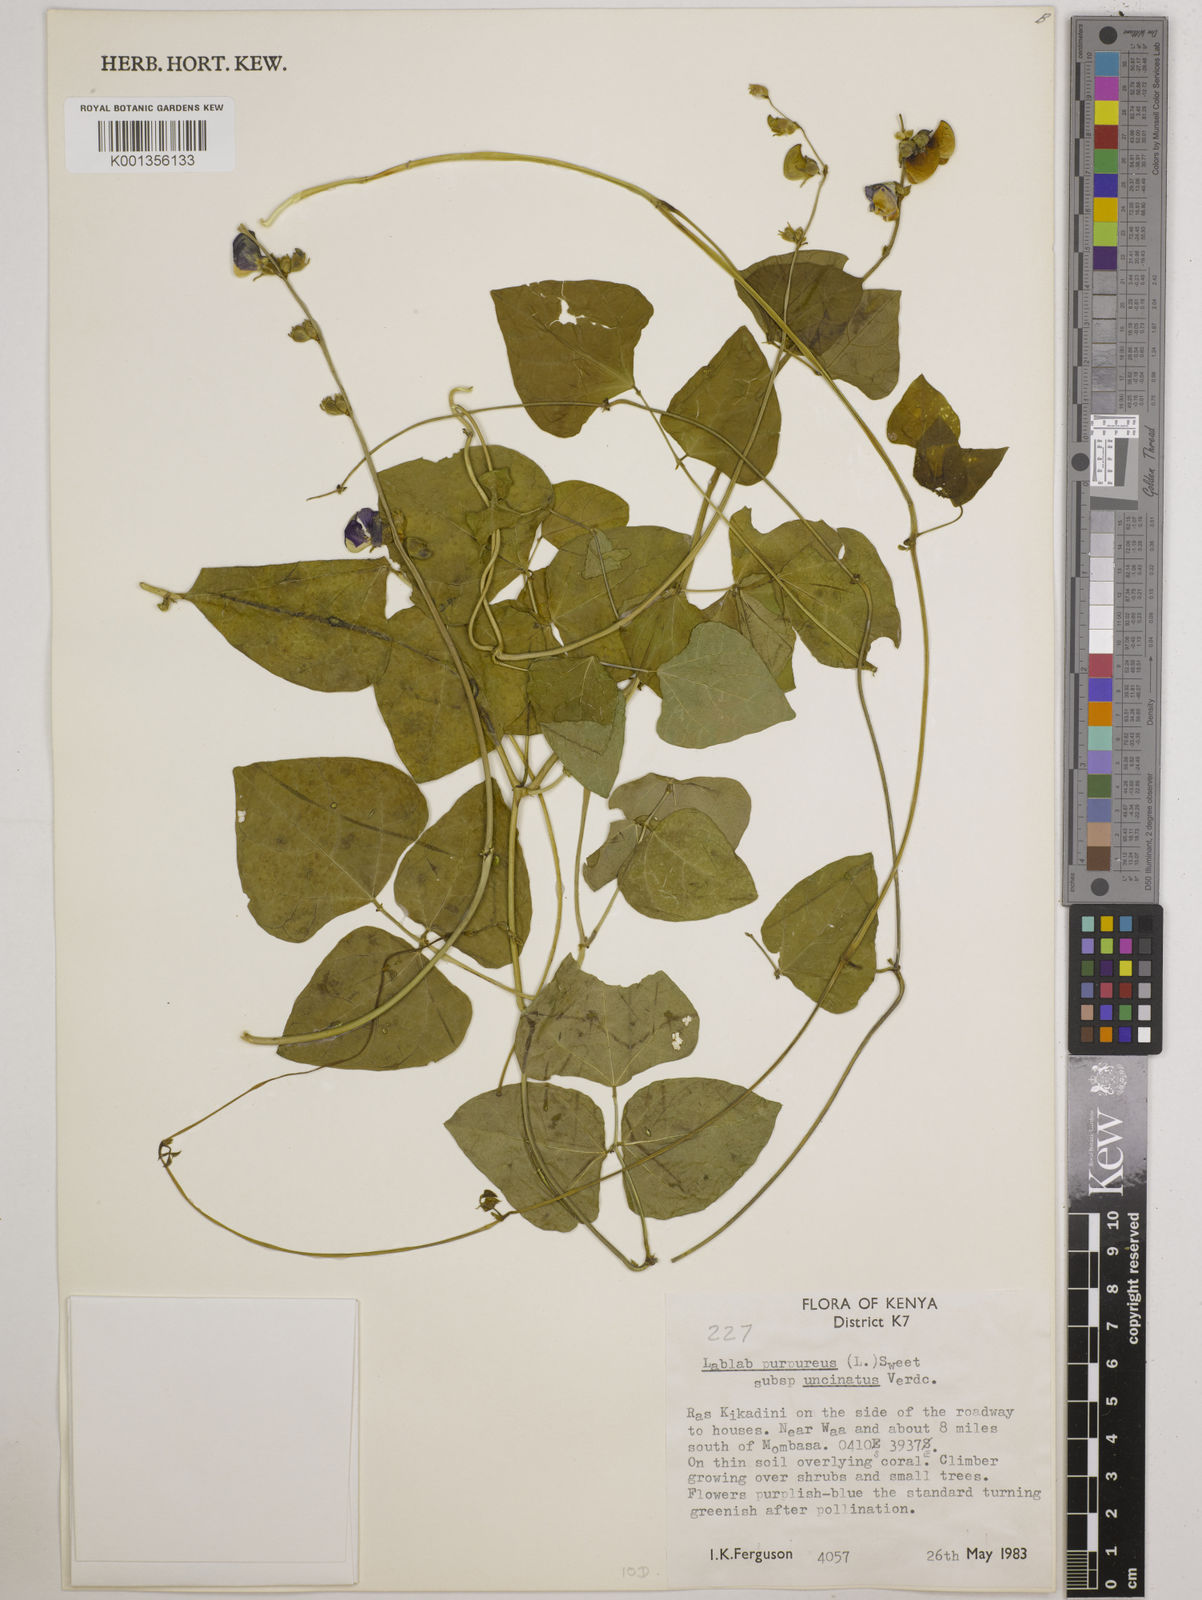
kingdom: Plantae
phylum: Tracheophyta
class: Magnoliopsida
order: Fabales
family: Fabaceae
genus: Lablab
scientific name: Lablab purpureus
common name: Lablab-bean
